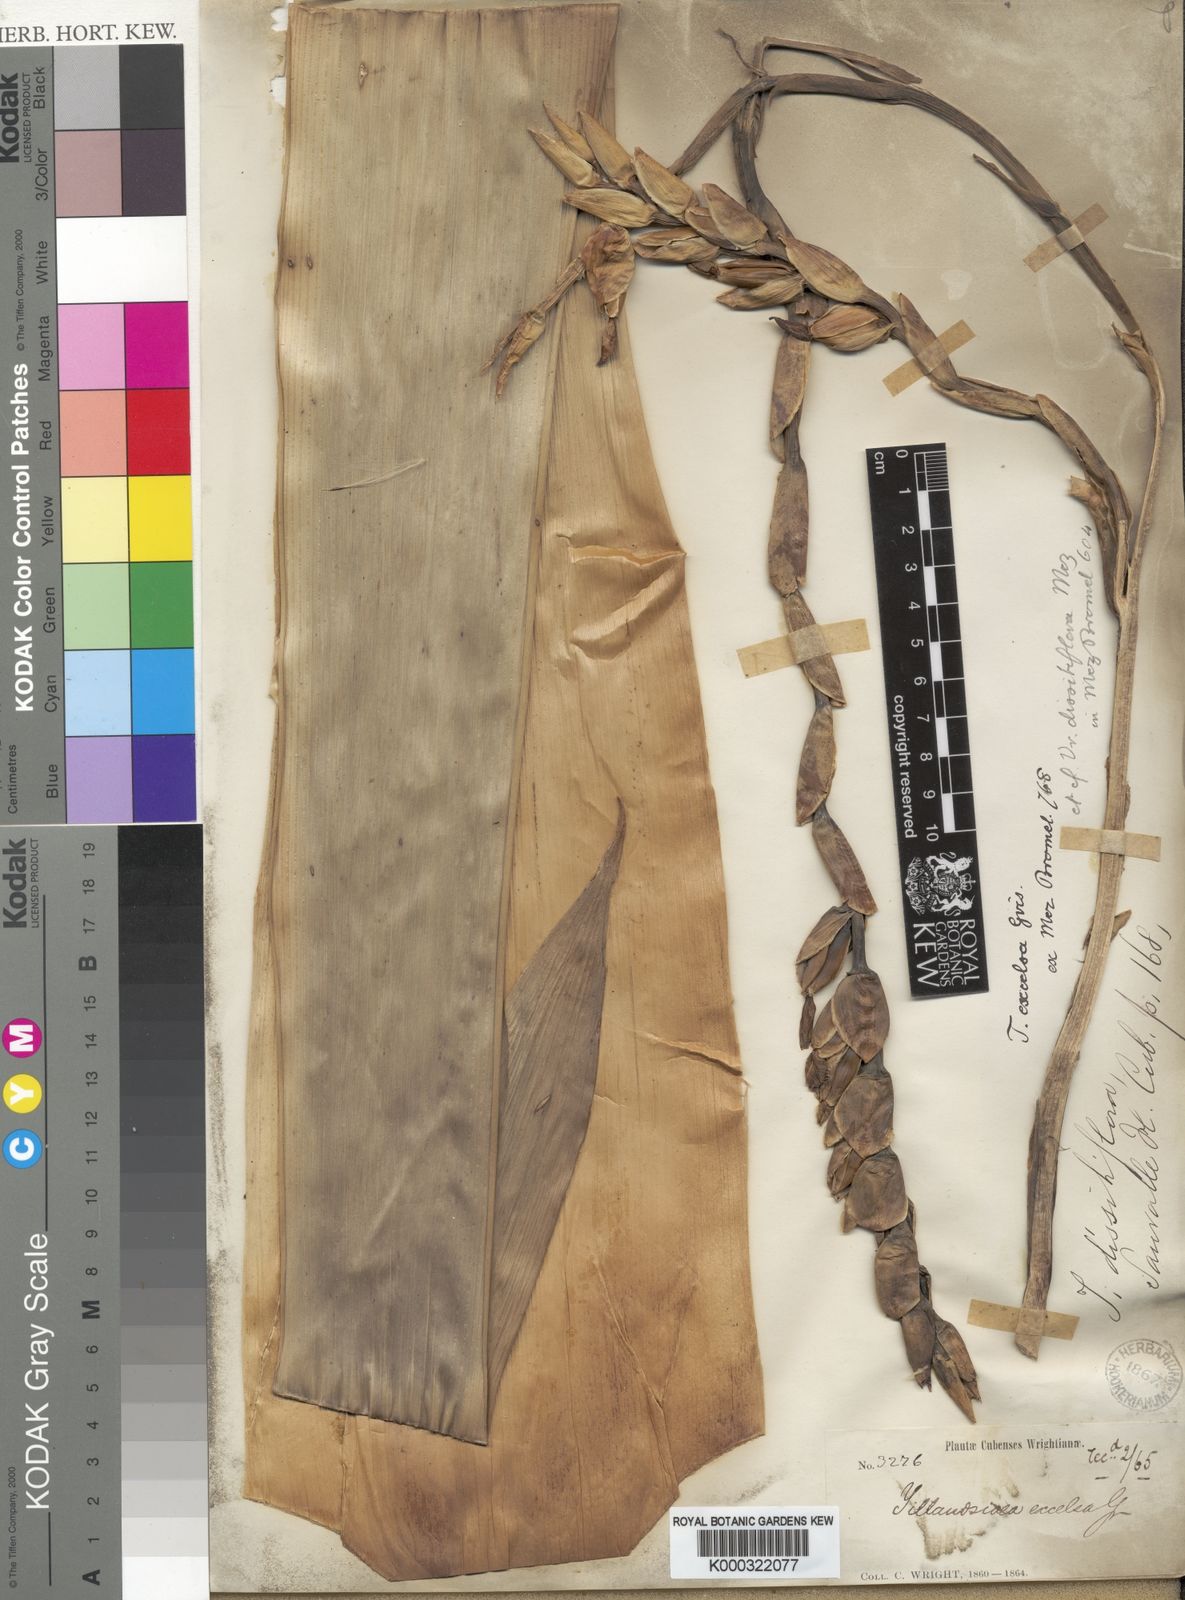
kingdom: Plantae
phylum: Tracheophyta
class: Liliopsida
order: Poales
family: Bromeliaceae
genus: Vriesea
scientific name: Vriesea dissitiflora
